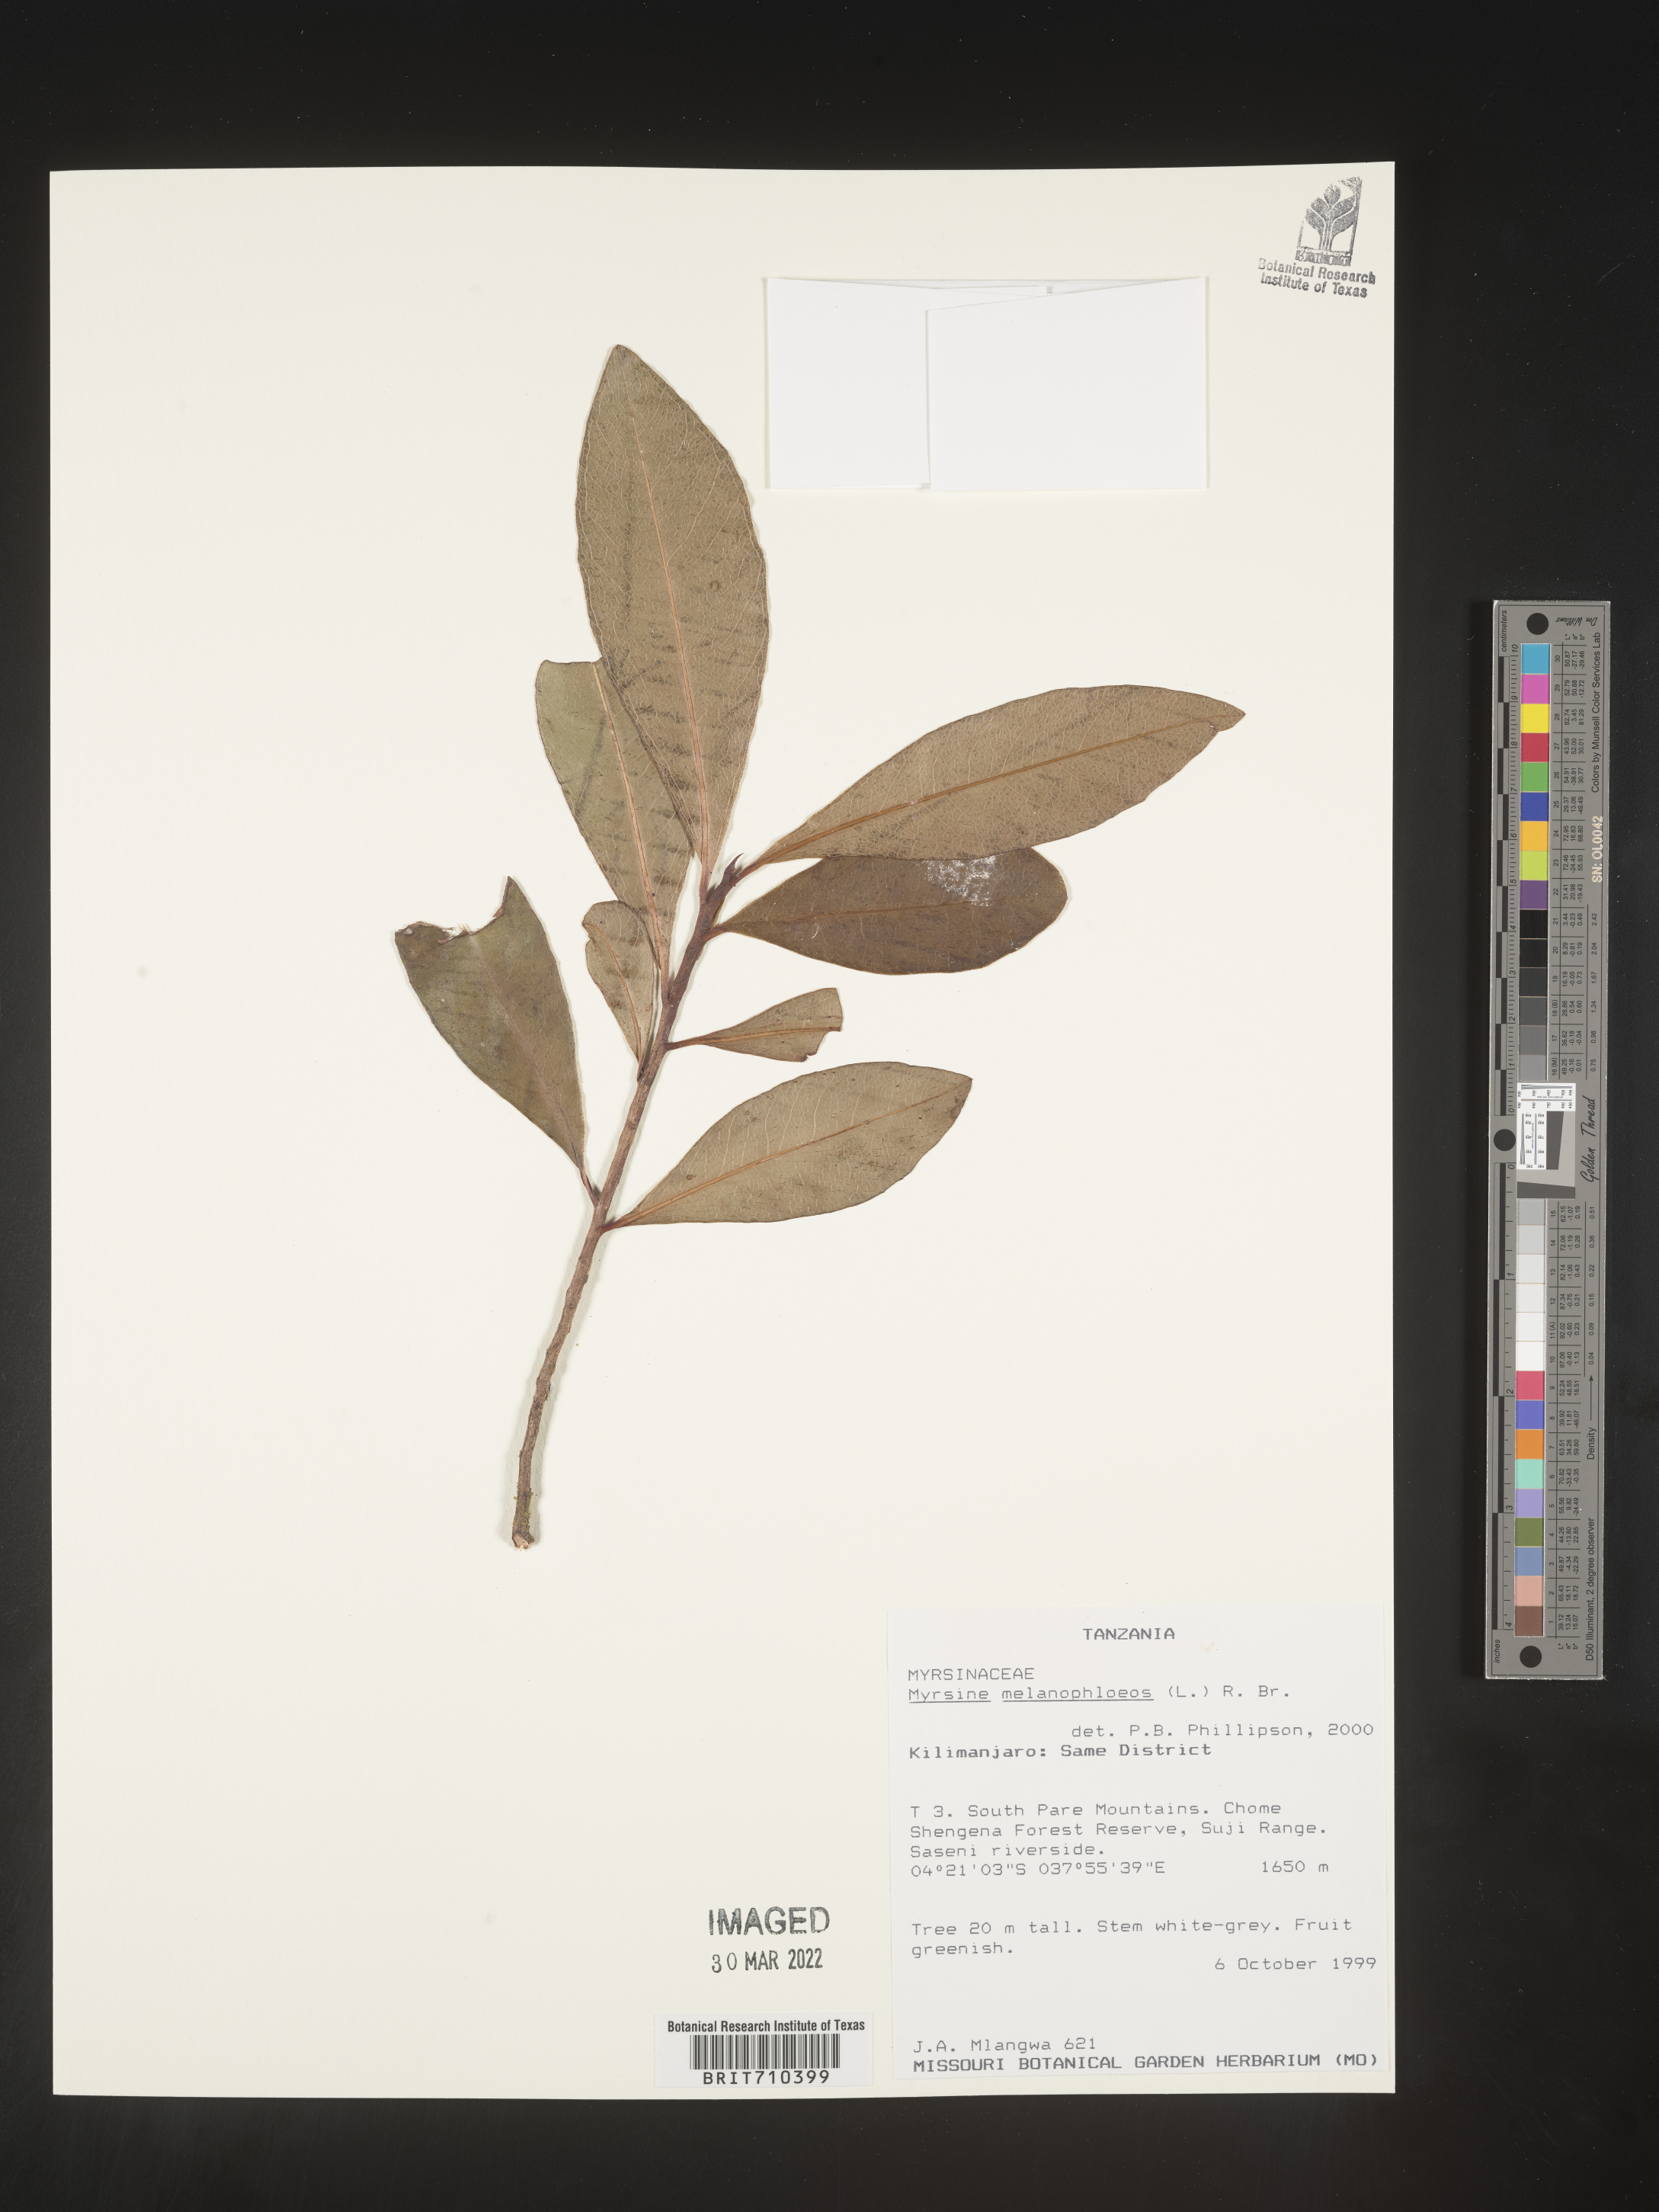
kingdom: Plantae
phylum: Tracheophyta
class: Magnoliopsida
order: Ericales
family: Primulaceae
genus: Myrsine
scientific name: Myrsine
